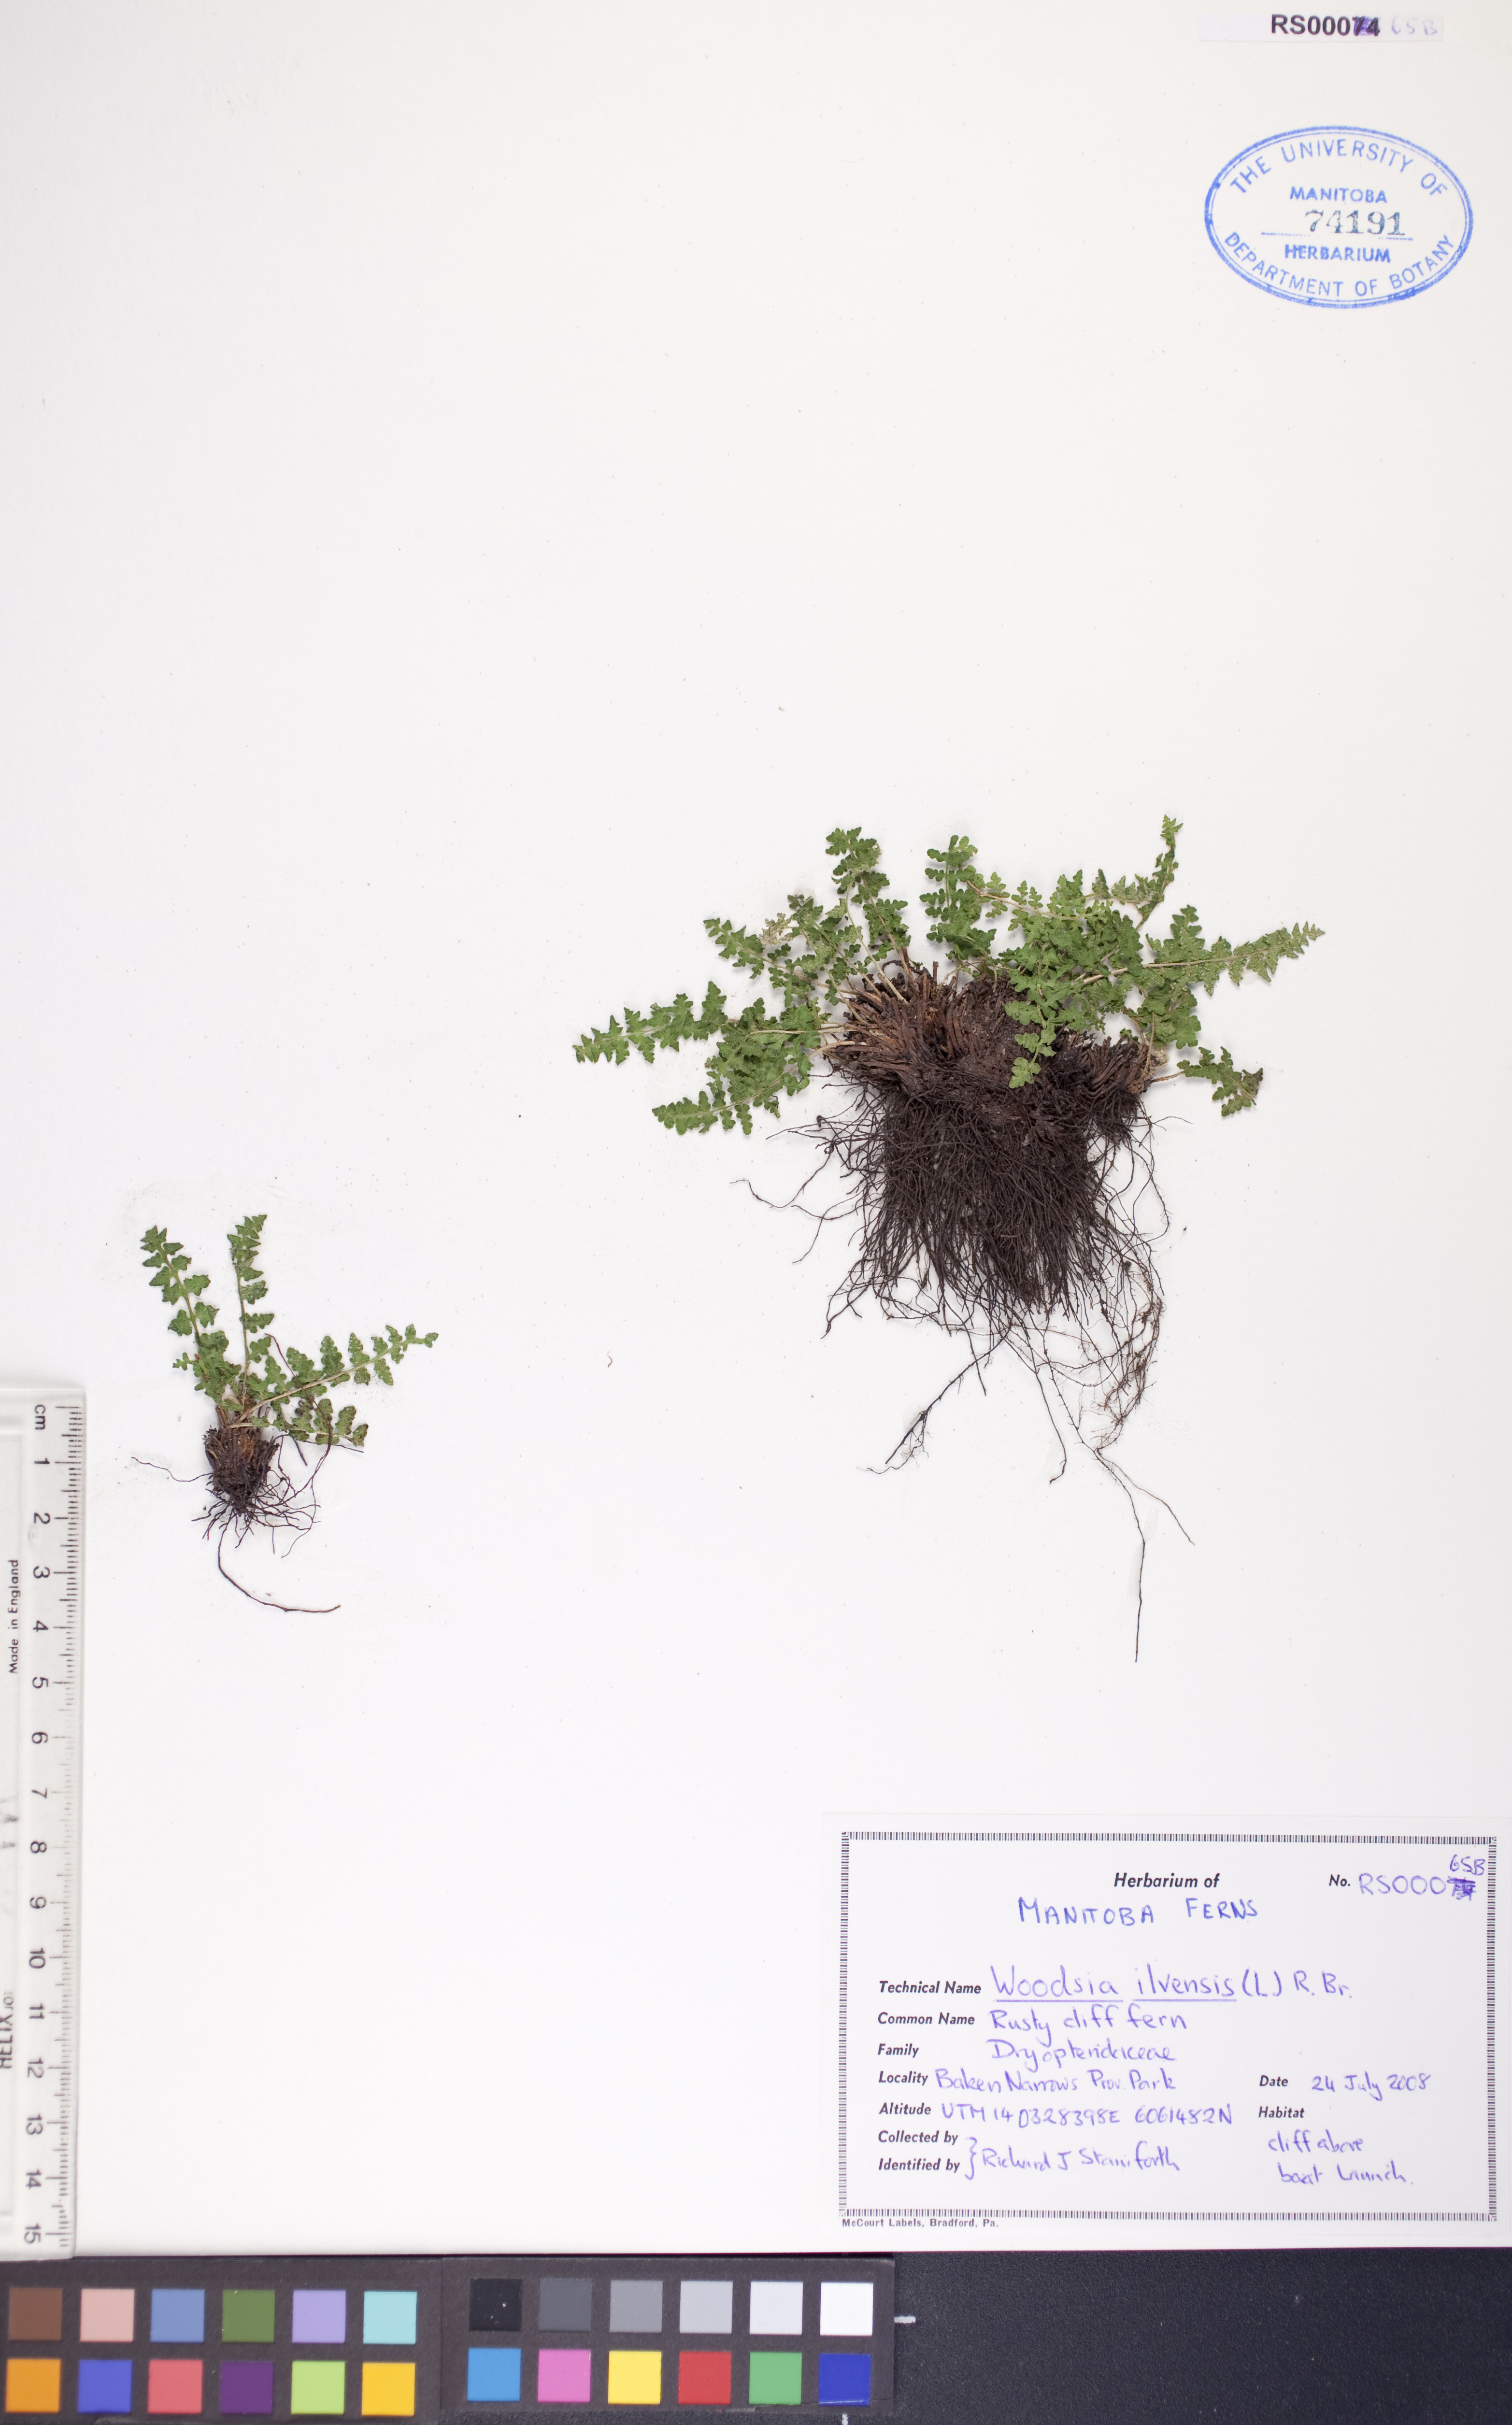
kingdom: Plantae
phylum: Tracheophyta
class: Polypodiopsida
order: Polypodiales
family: Woodsiaceae
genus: Woodsia
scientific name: Woodsia ilvensis
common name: Fragrant woodsia
